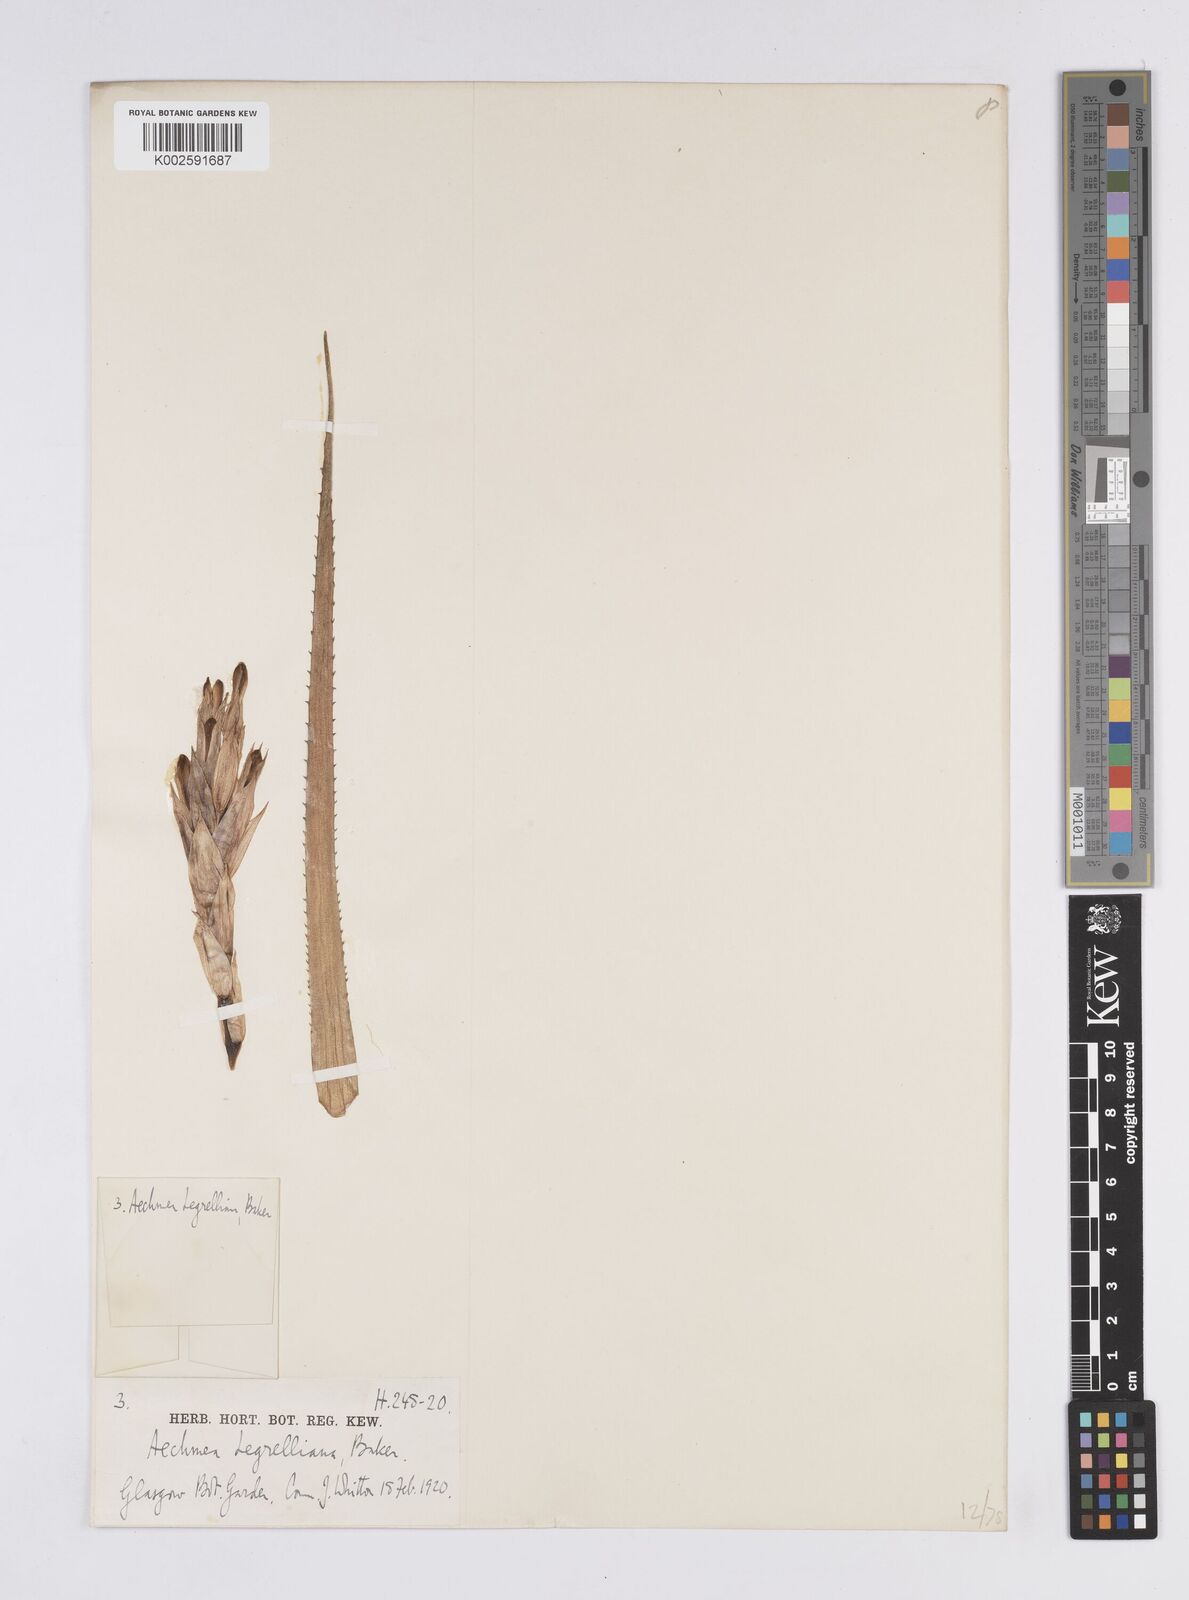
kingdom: Plantae
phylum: Tracheophyta
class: Liliopsida
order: Poales
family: Bromeliaceae
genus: Aechmea
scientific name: Aechmea recurvata
